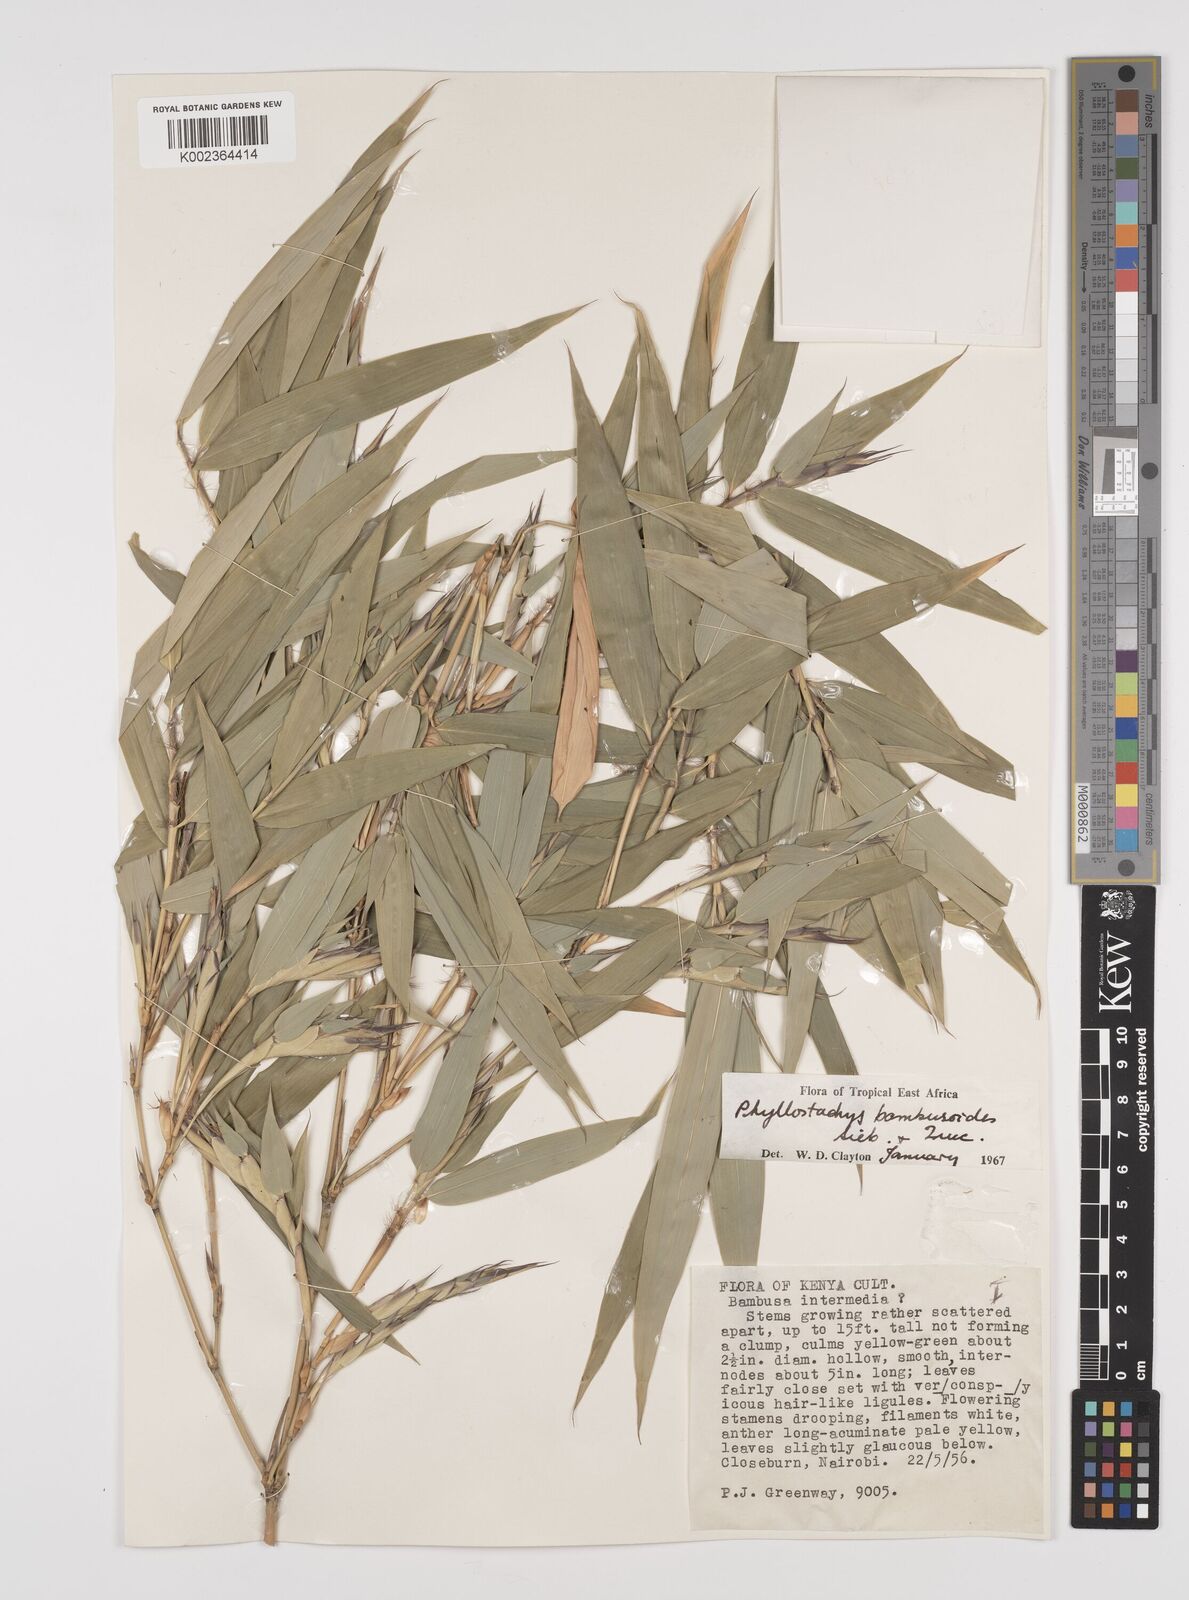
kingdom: Plantae
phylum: Tracheophyta
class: Liliopsida
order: Poales
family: Poaceae
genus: Phyllostachys
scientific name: Phyllostachys reticulata
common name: Bamboo
